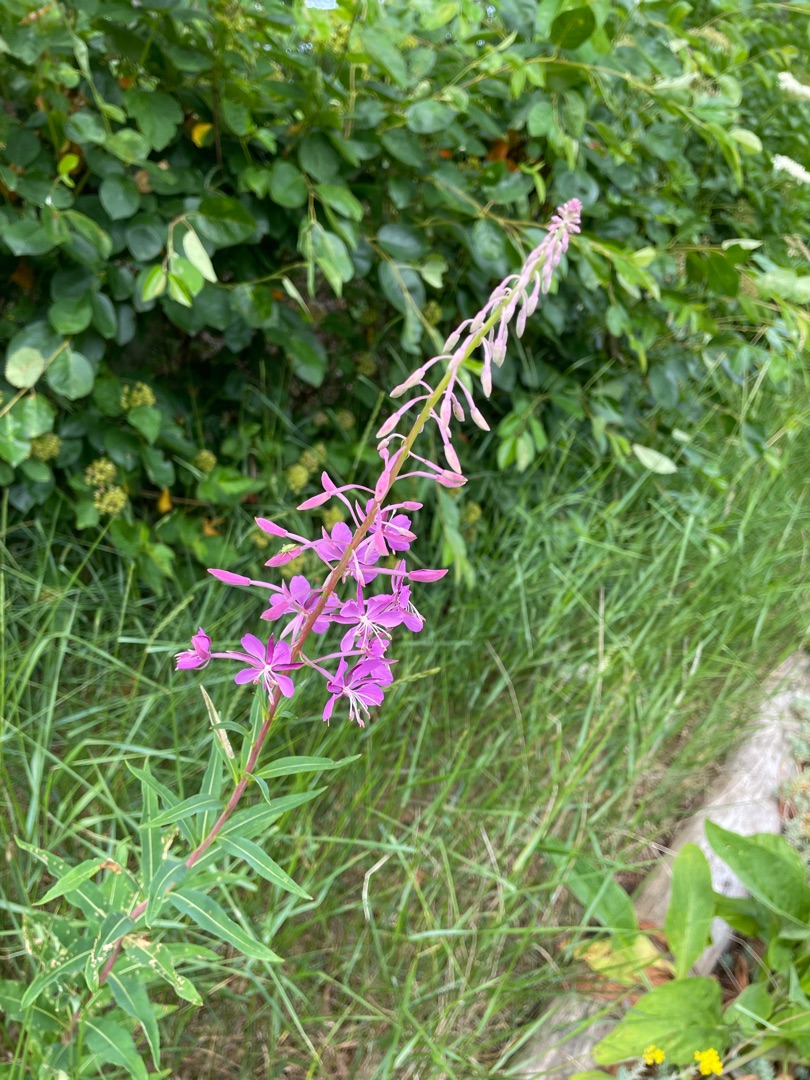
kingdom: Plantae
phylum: Tracheophyta
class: Magnoliopsida
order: Myrtales
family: Onagraceae
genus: Chamaenerion
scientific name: Chamaenerion angustifolium
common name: Gederams
